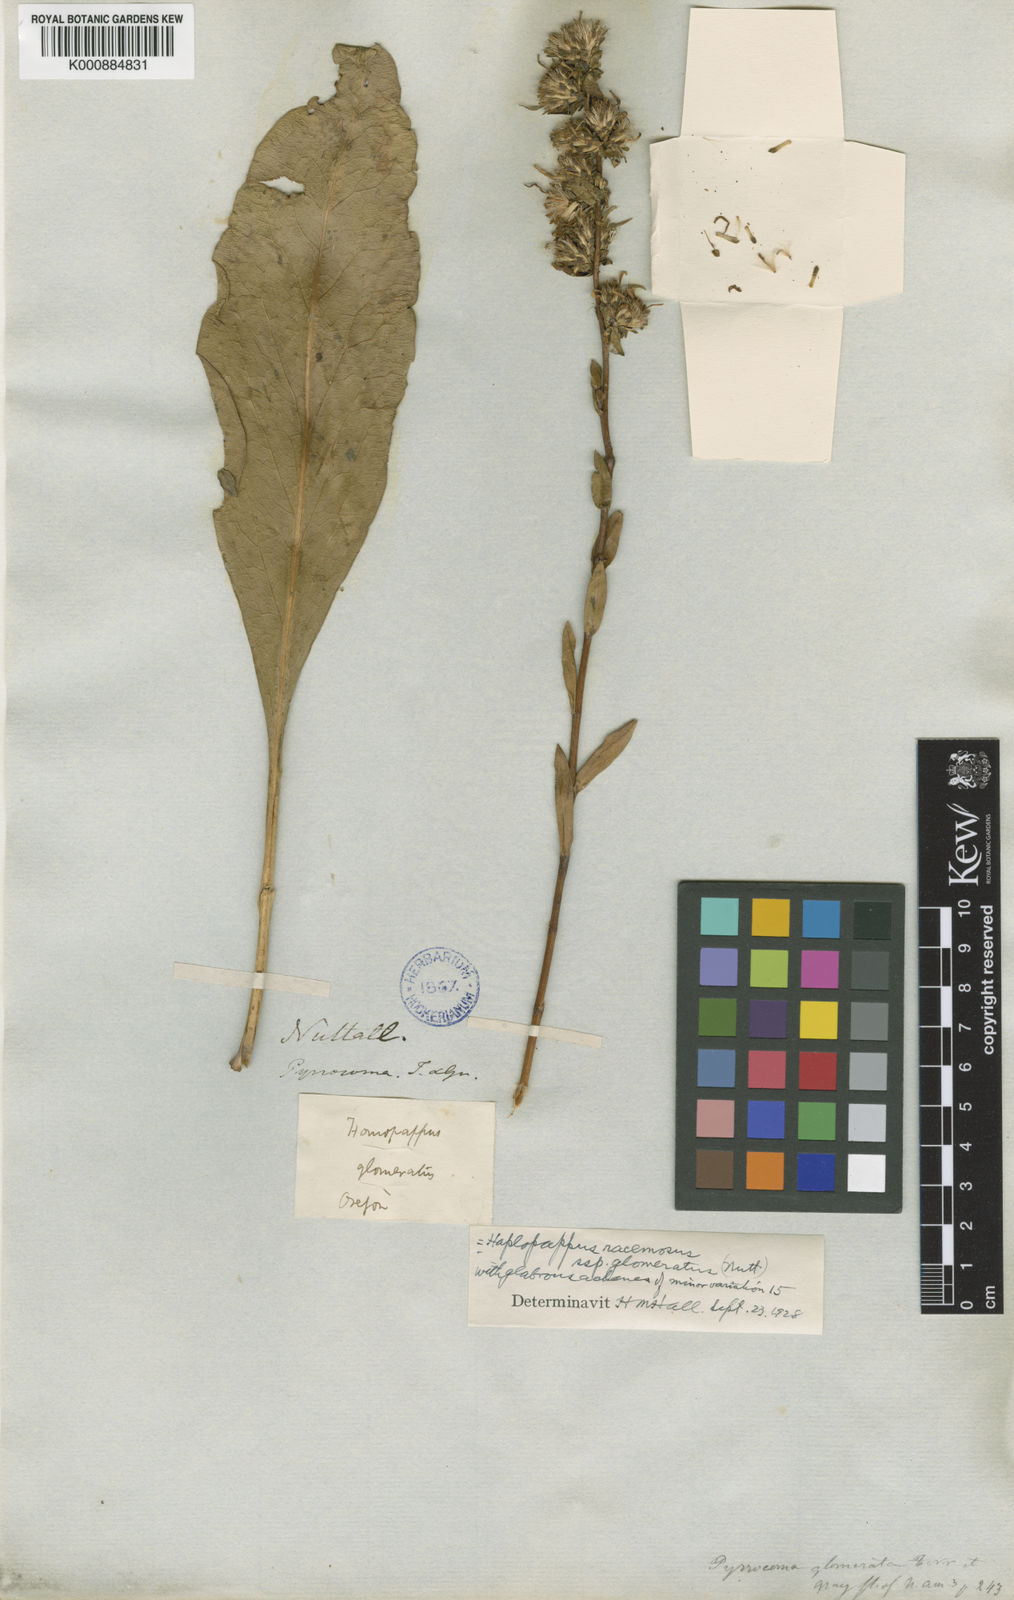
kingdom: Plantae
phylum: Tracheophyta
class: Magnoliopsida
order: Asterales
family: Asteraceae
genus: Pyrrocoma
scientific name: Pyrrocoma racemosa
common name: Clustered goldenweed
